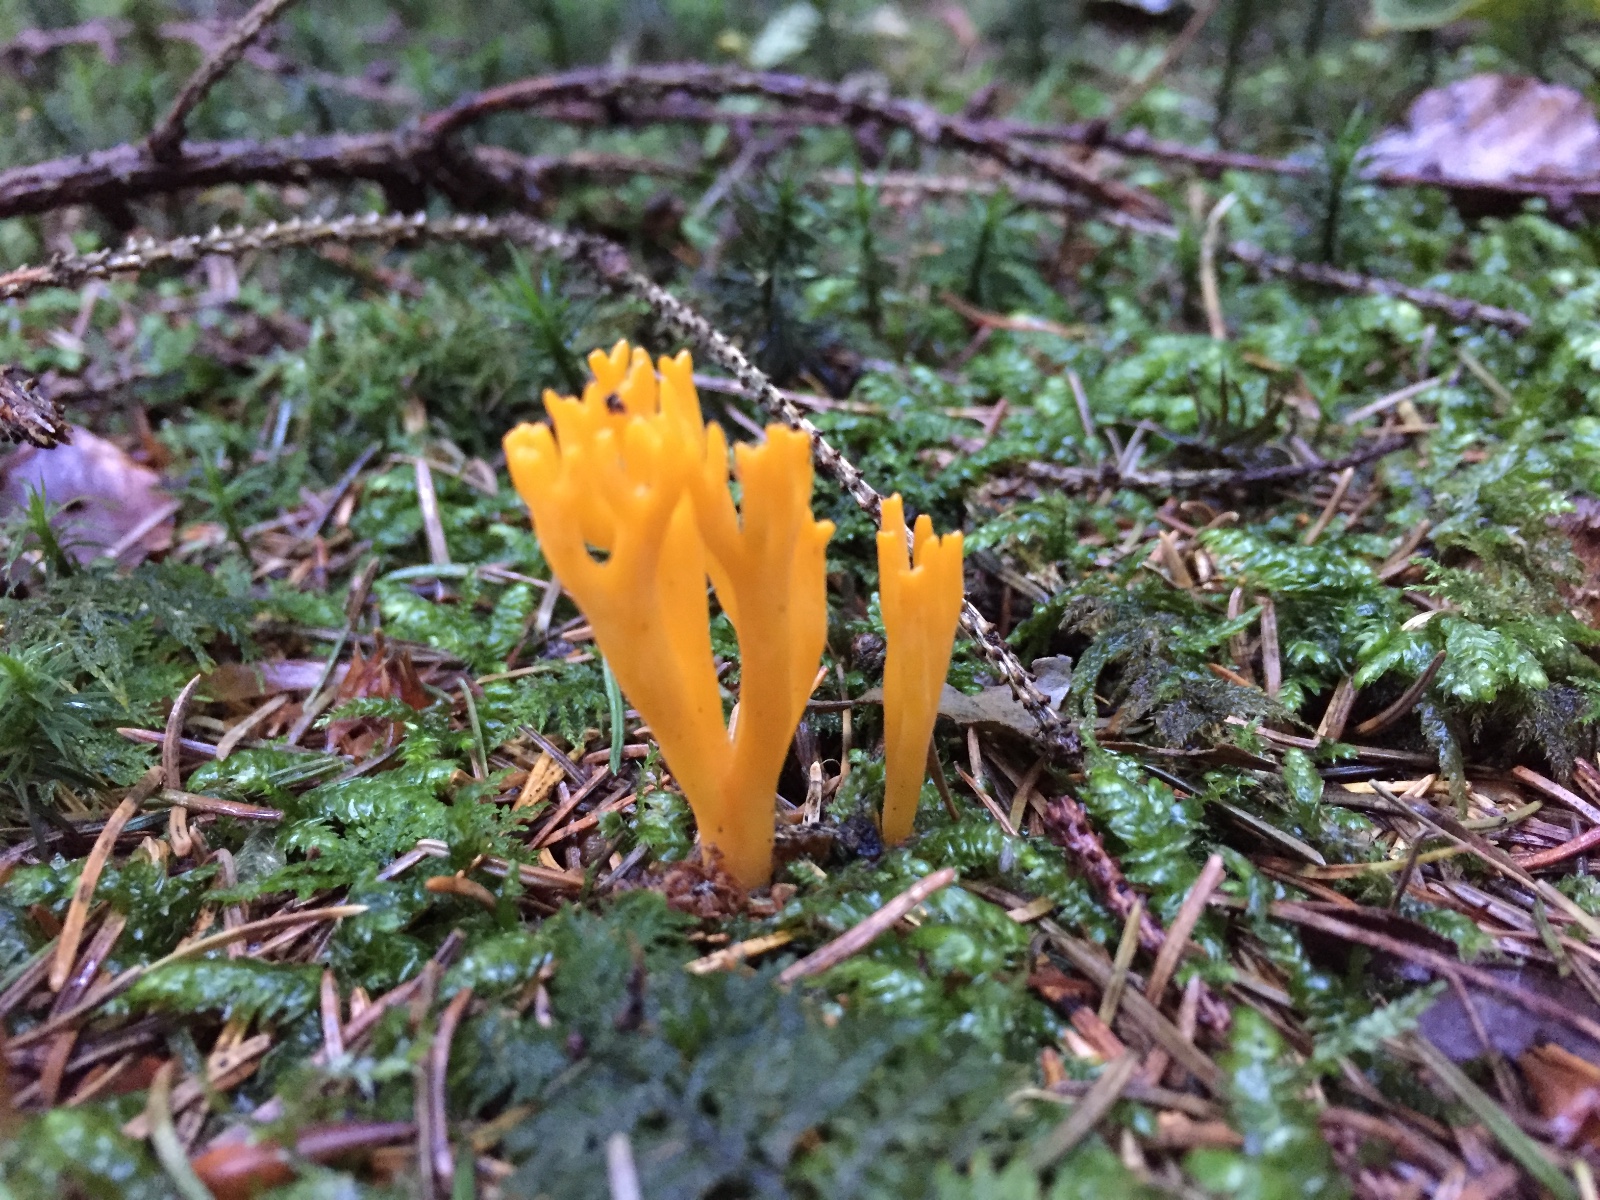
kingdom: Fungi
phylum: Basidiomycota
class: Dacrymycetes
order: Dacrymycetales
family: Dacrymycetaceae
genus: Calocera
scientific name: Calocera viscosa
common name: almindelig guldgaffel
